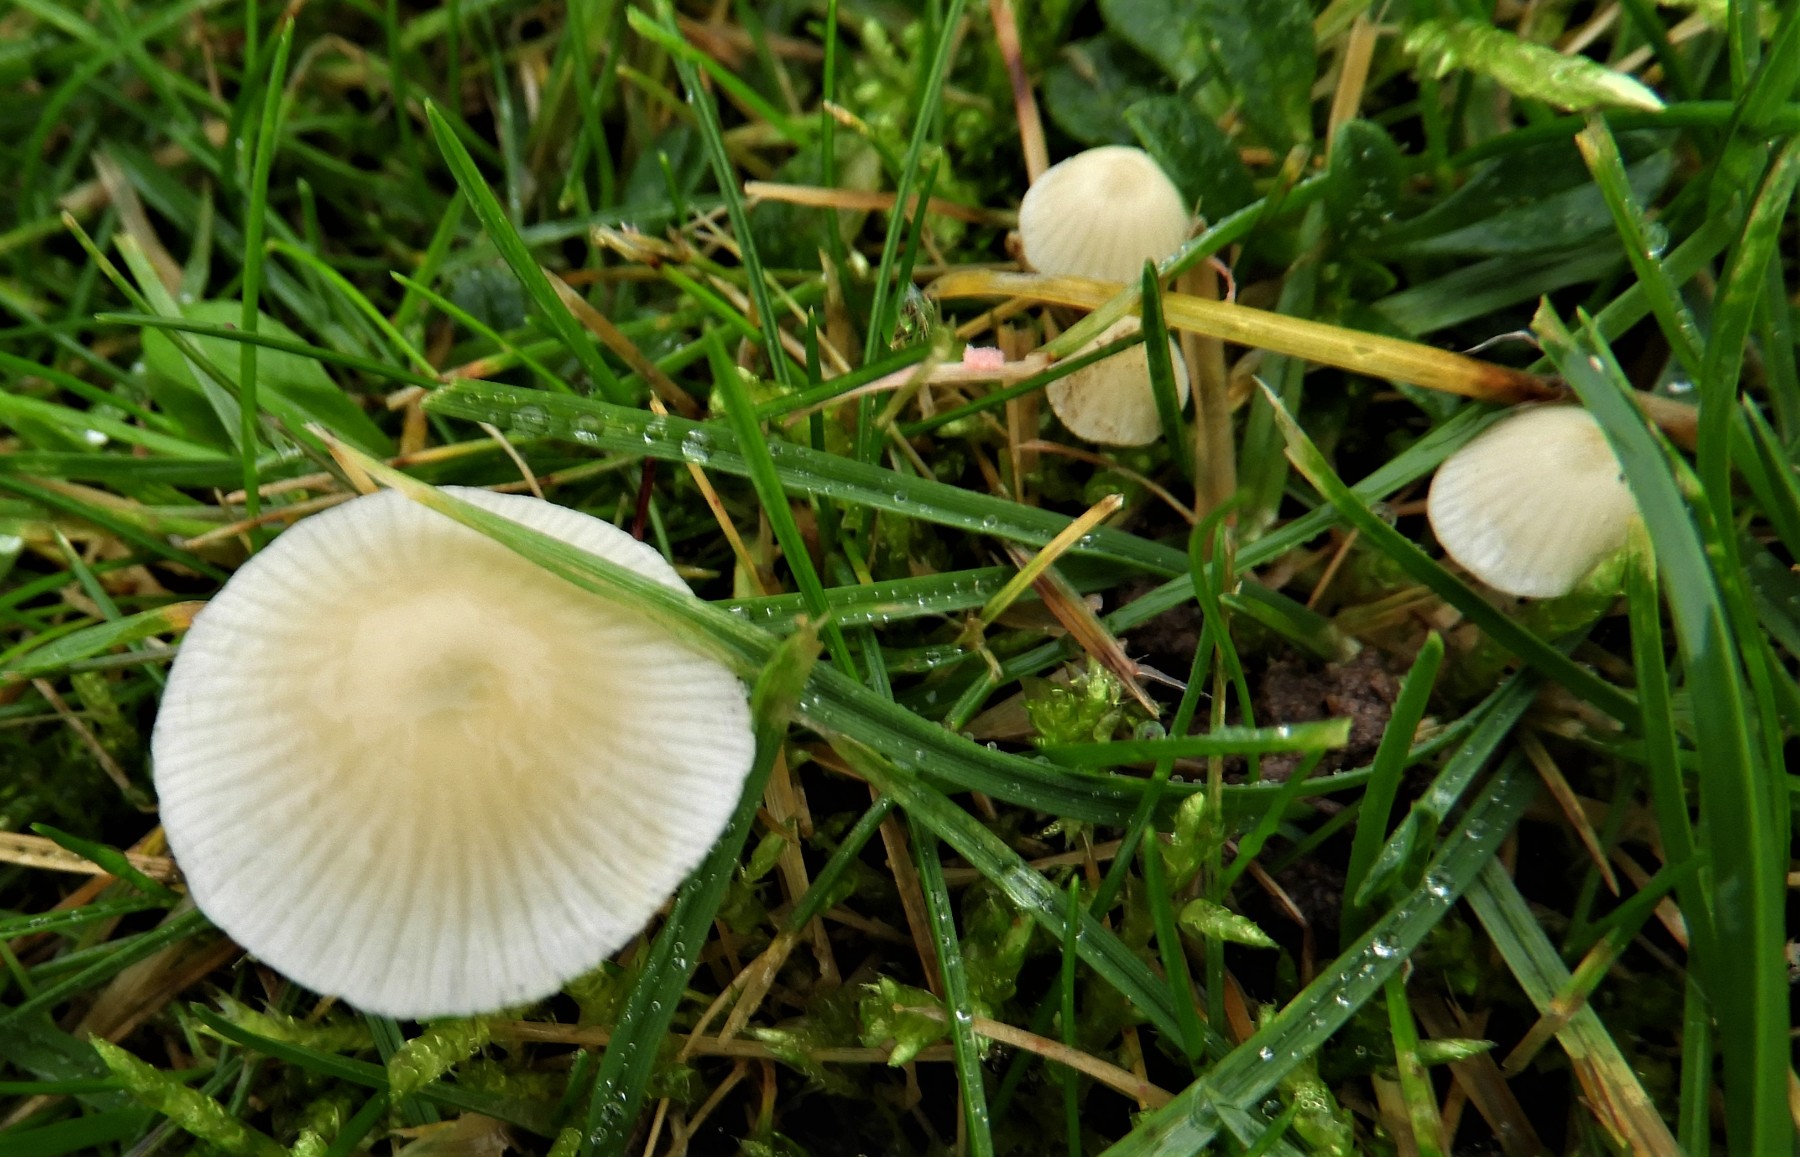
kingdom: Fungi
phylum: Basidiomycota
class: Agaricomycetes
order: Agaricales
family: Mycenaceae
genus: Atheniella
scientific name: Atheniella flavoalba
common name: gulhvid huesvamp
